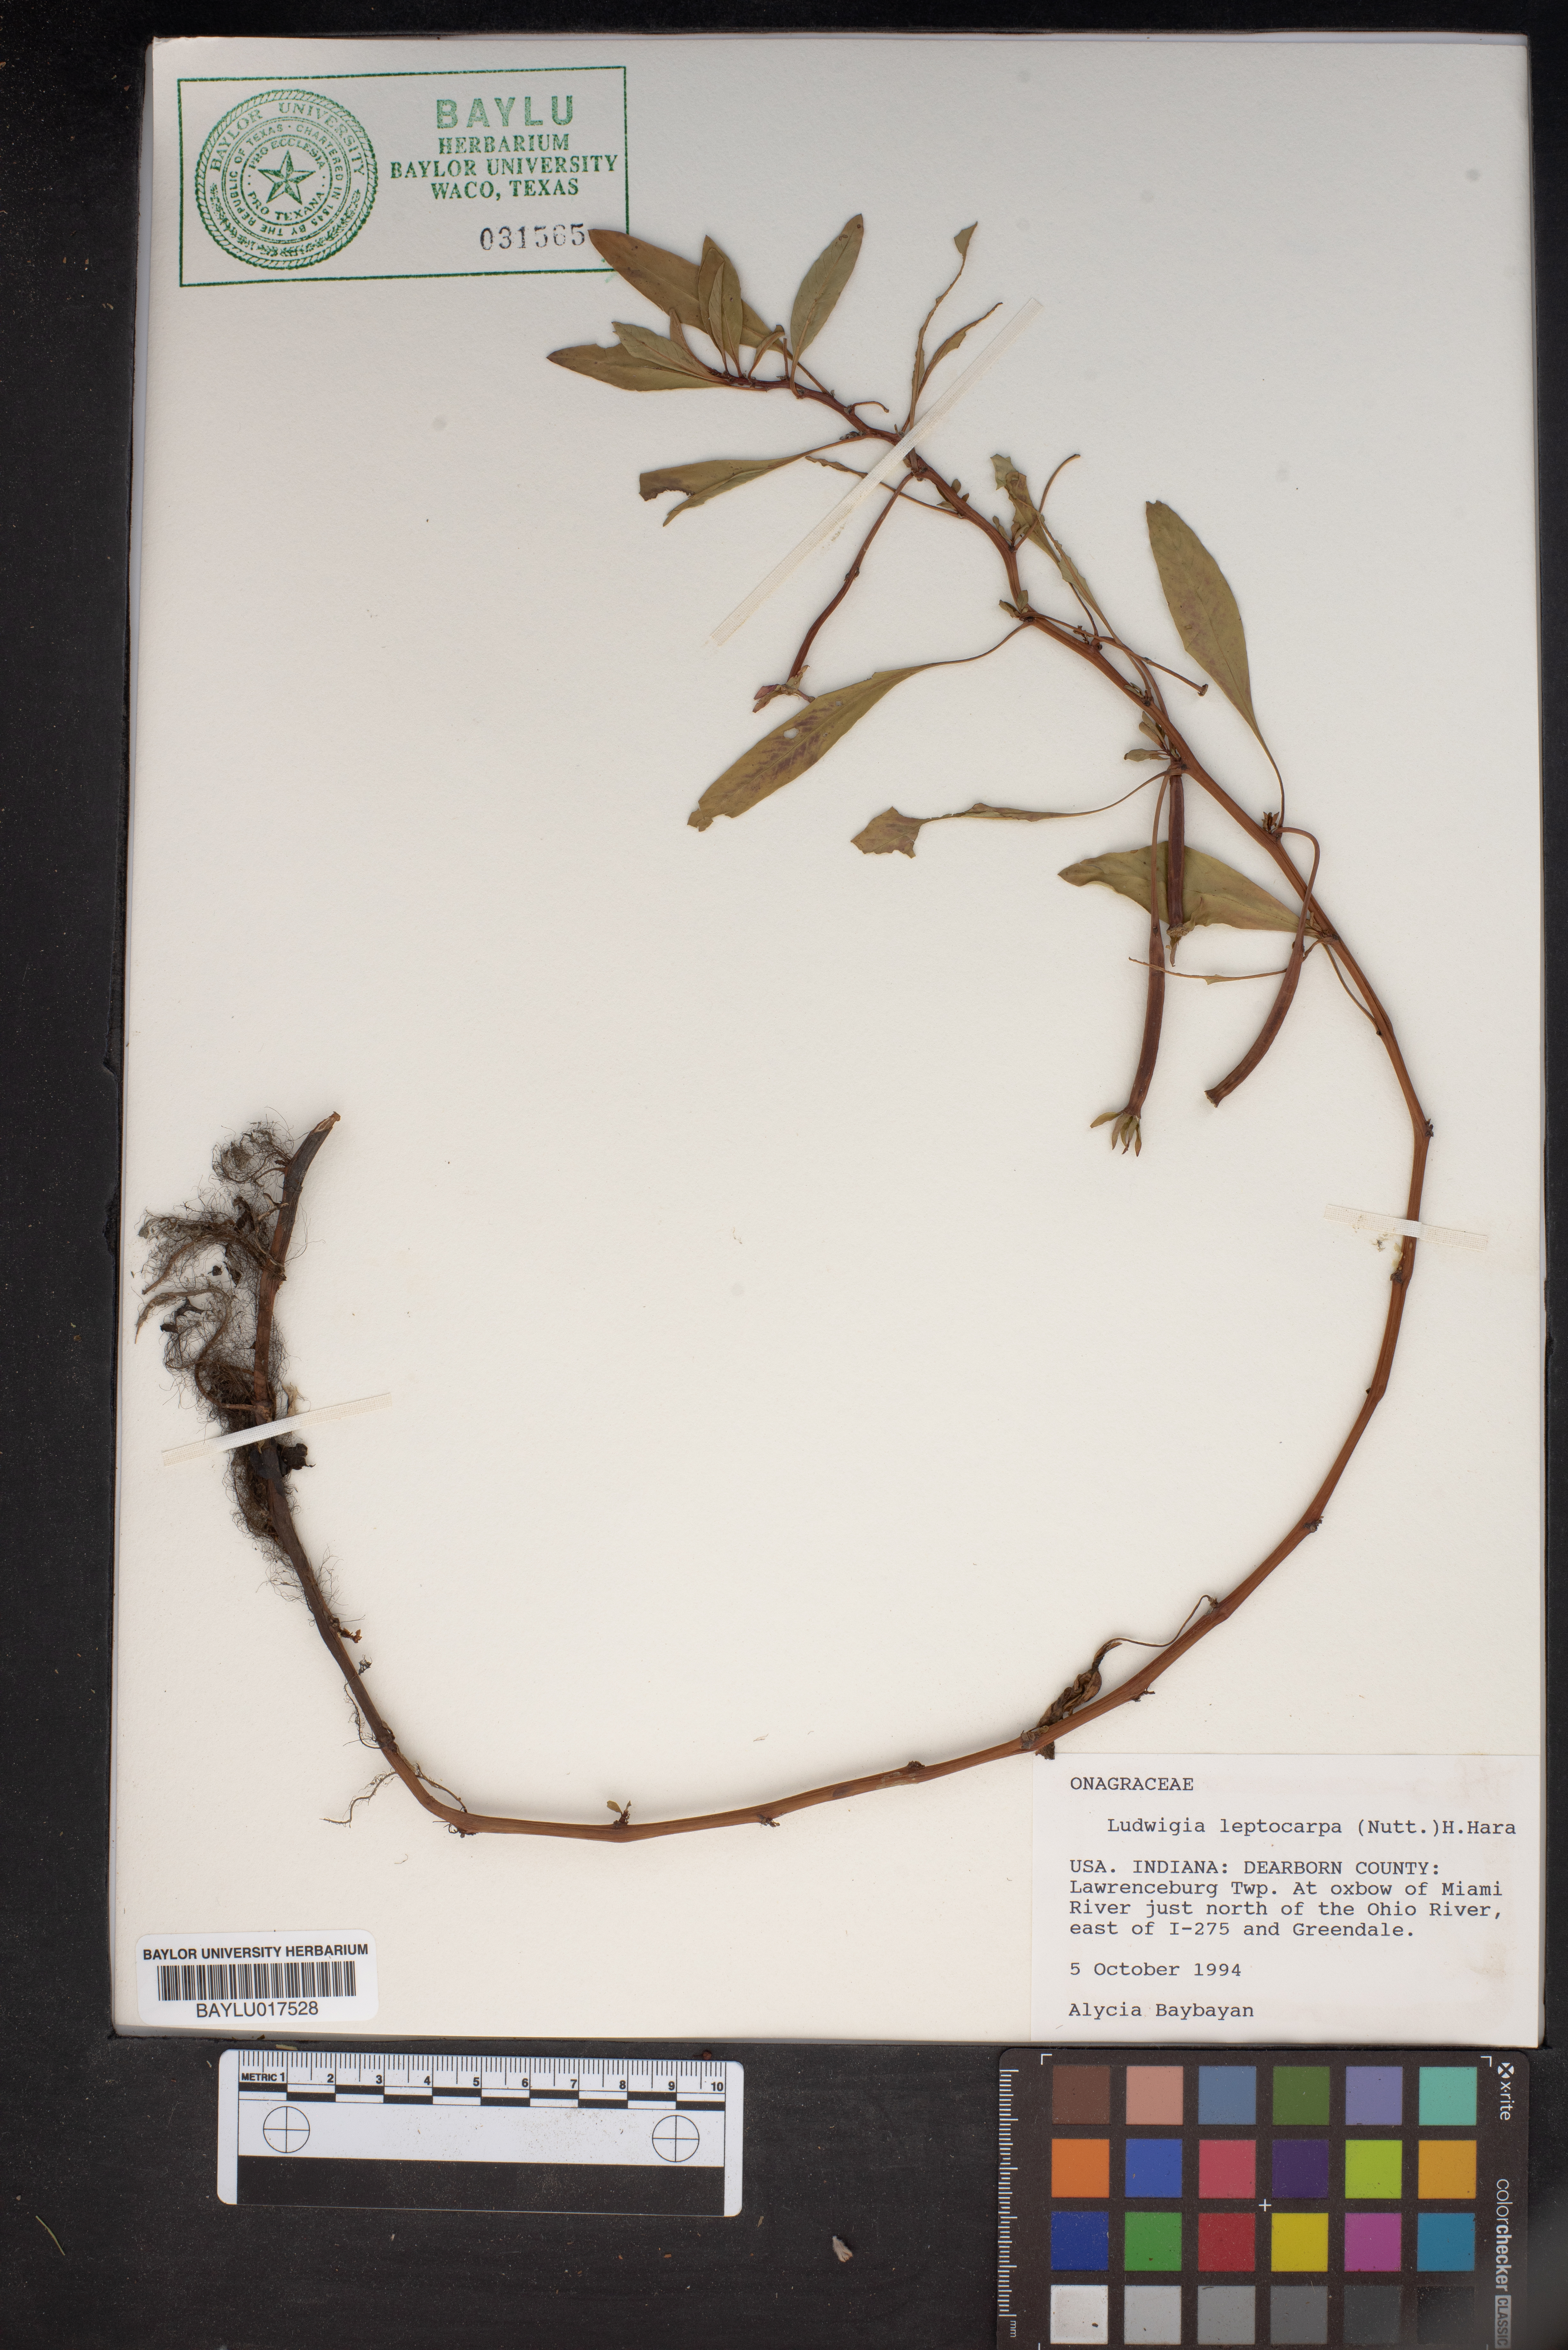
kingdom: Plantae
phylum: Tracheophyta
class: Magnoliopsida
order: Myrtales
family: Onagraceae
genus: Ludwigia
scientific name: Ludwigia leptocarpa
